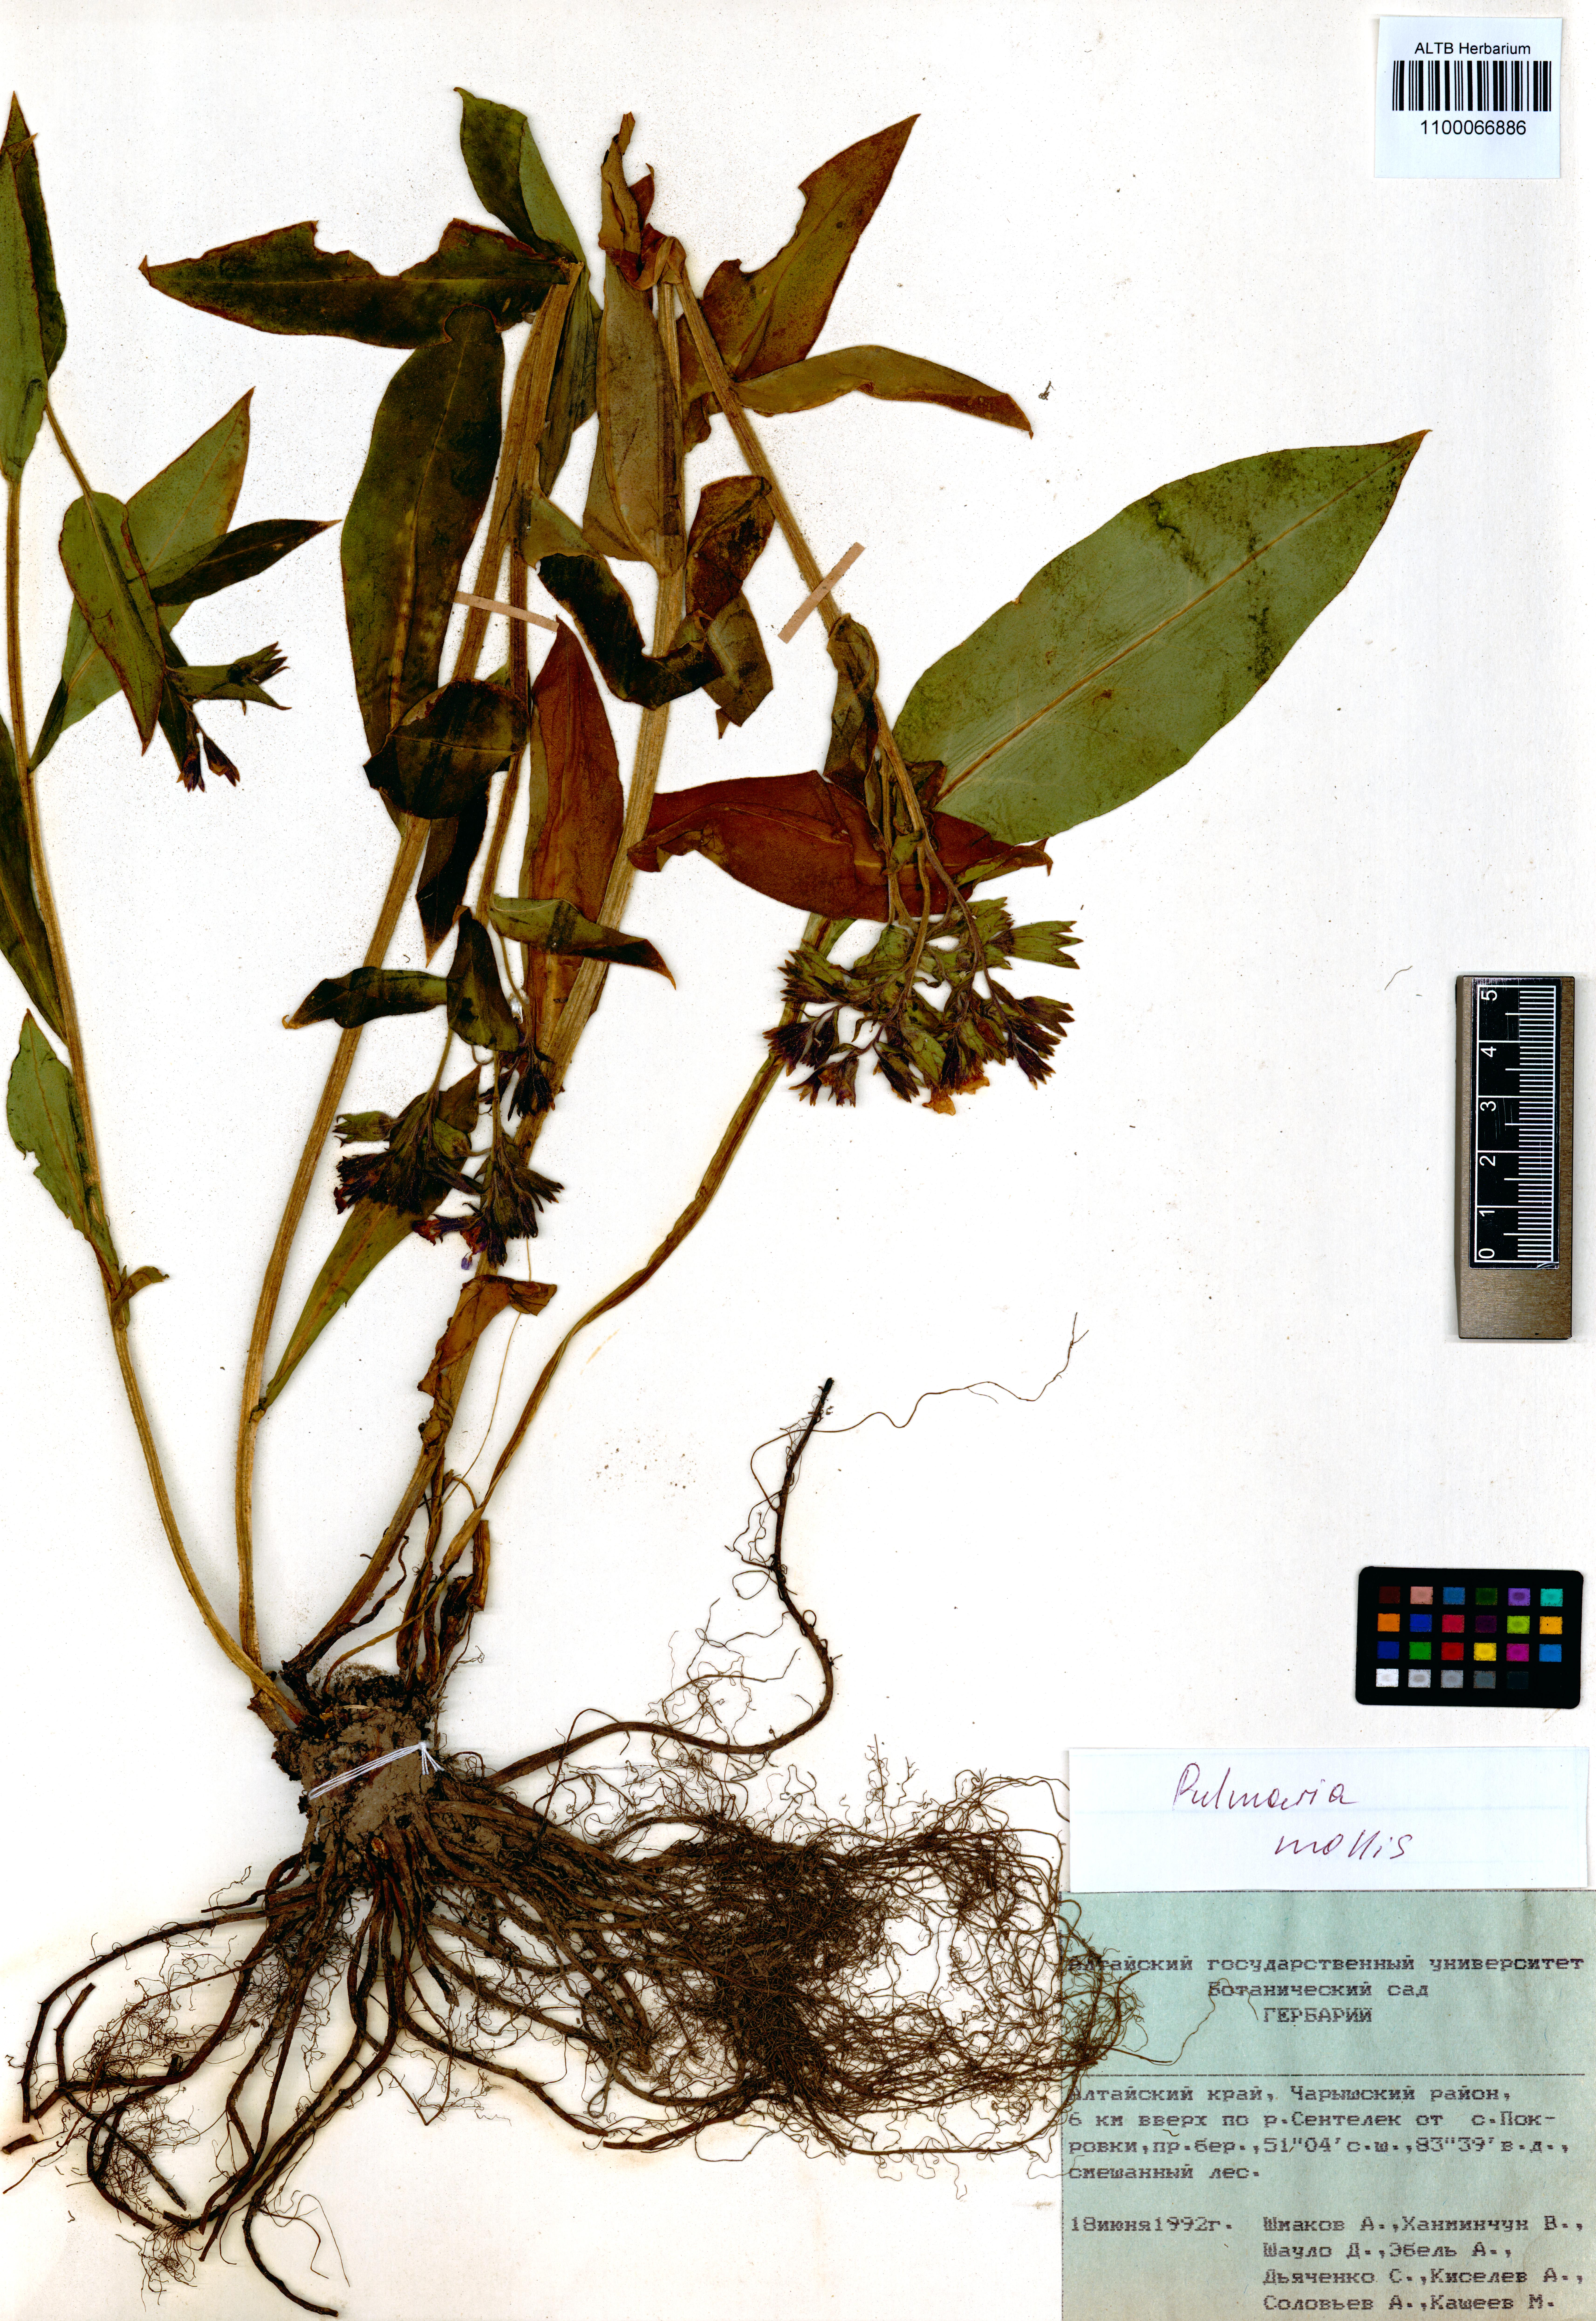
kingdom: Plantae
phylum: Tracheophyta
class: Magnoliopsida
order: Boraginales
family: Boraginaceae
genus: Pulmonaria
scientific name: Pulmonaria mollis
